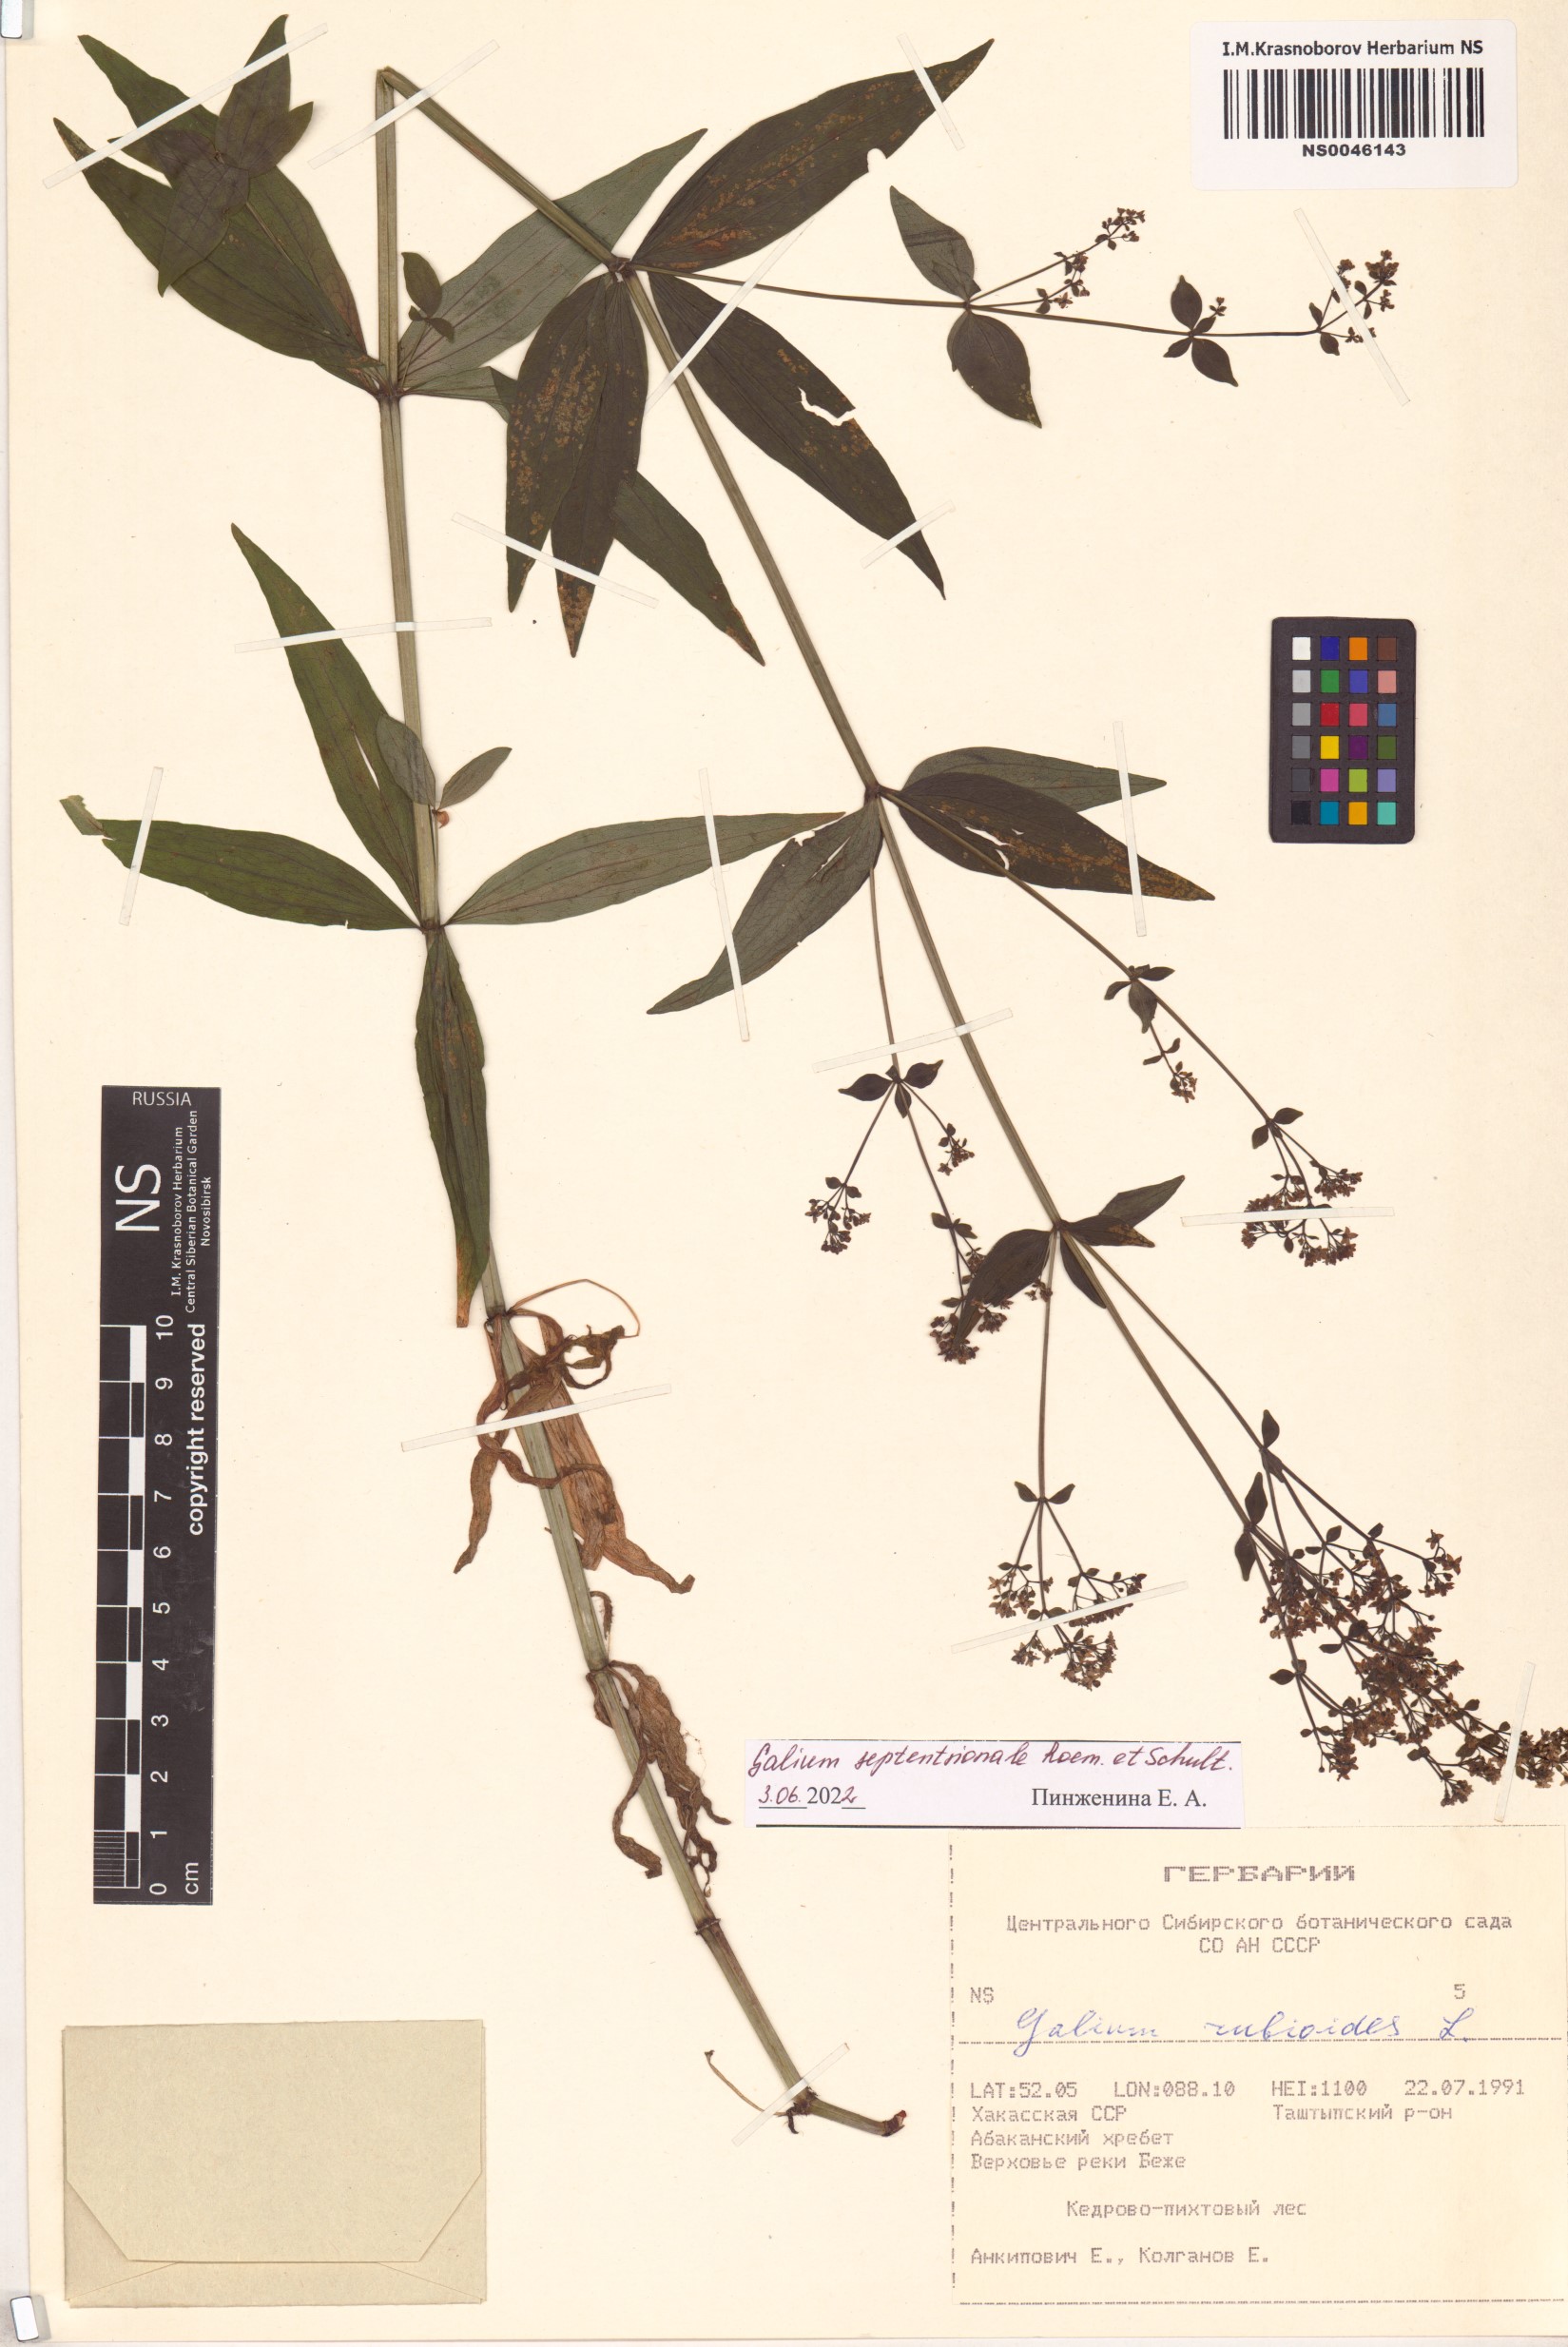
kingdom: Plantae
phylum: Tracheophyta
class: Magnoliopsida
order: Gentianales
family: Rubiaceae
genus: Galium
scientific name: Galium boreale
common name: Northern bedstraw
